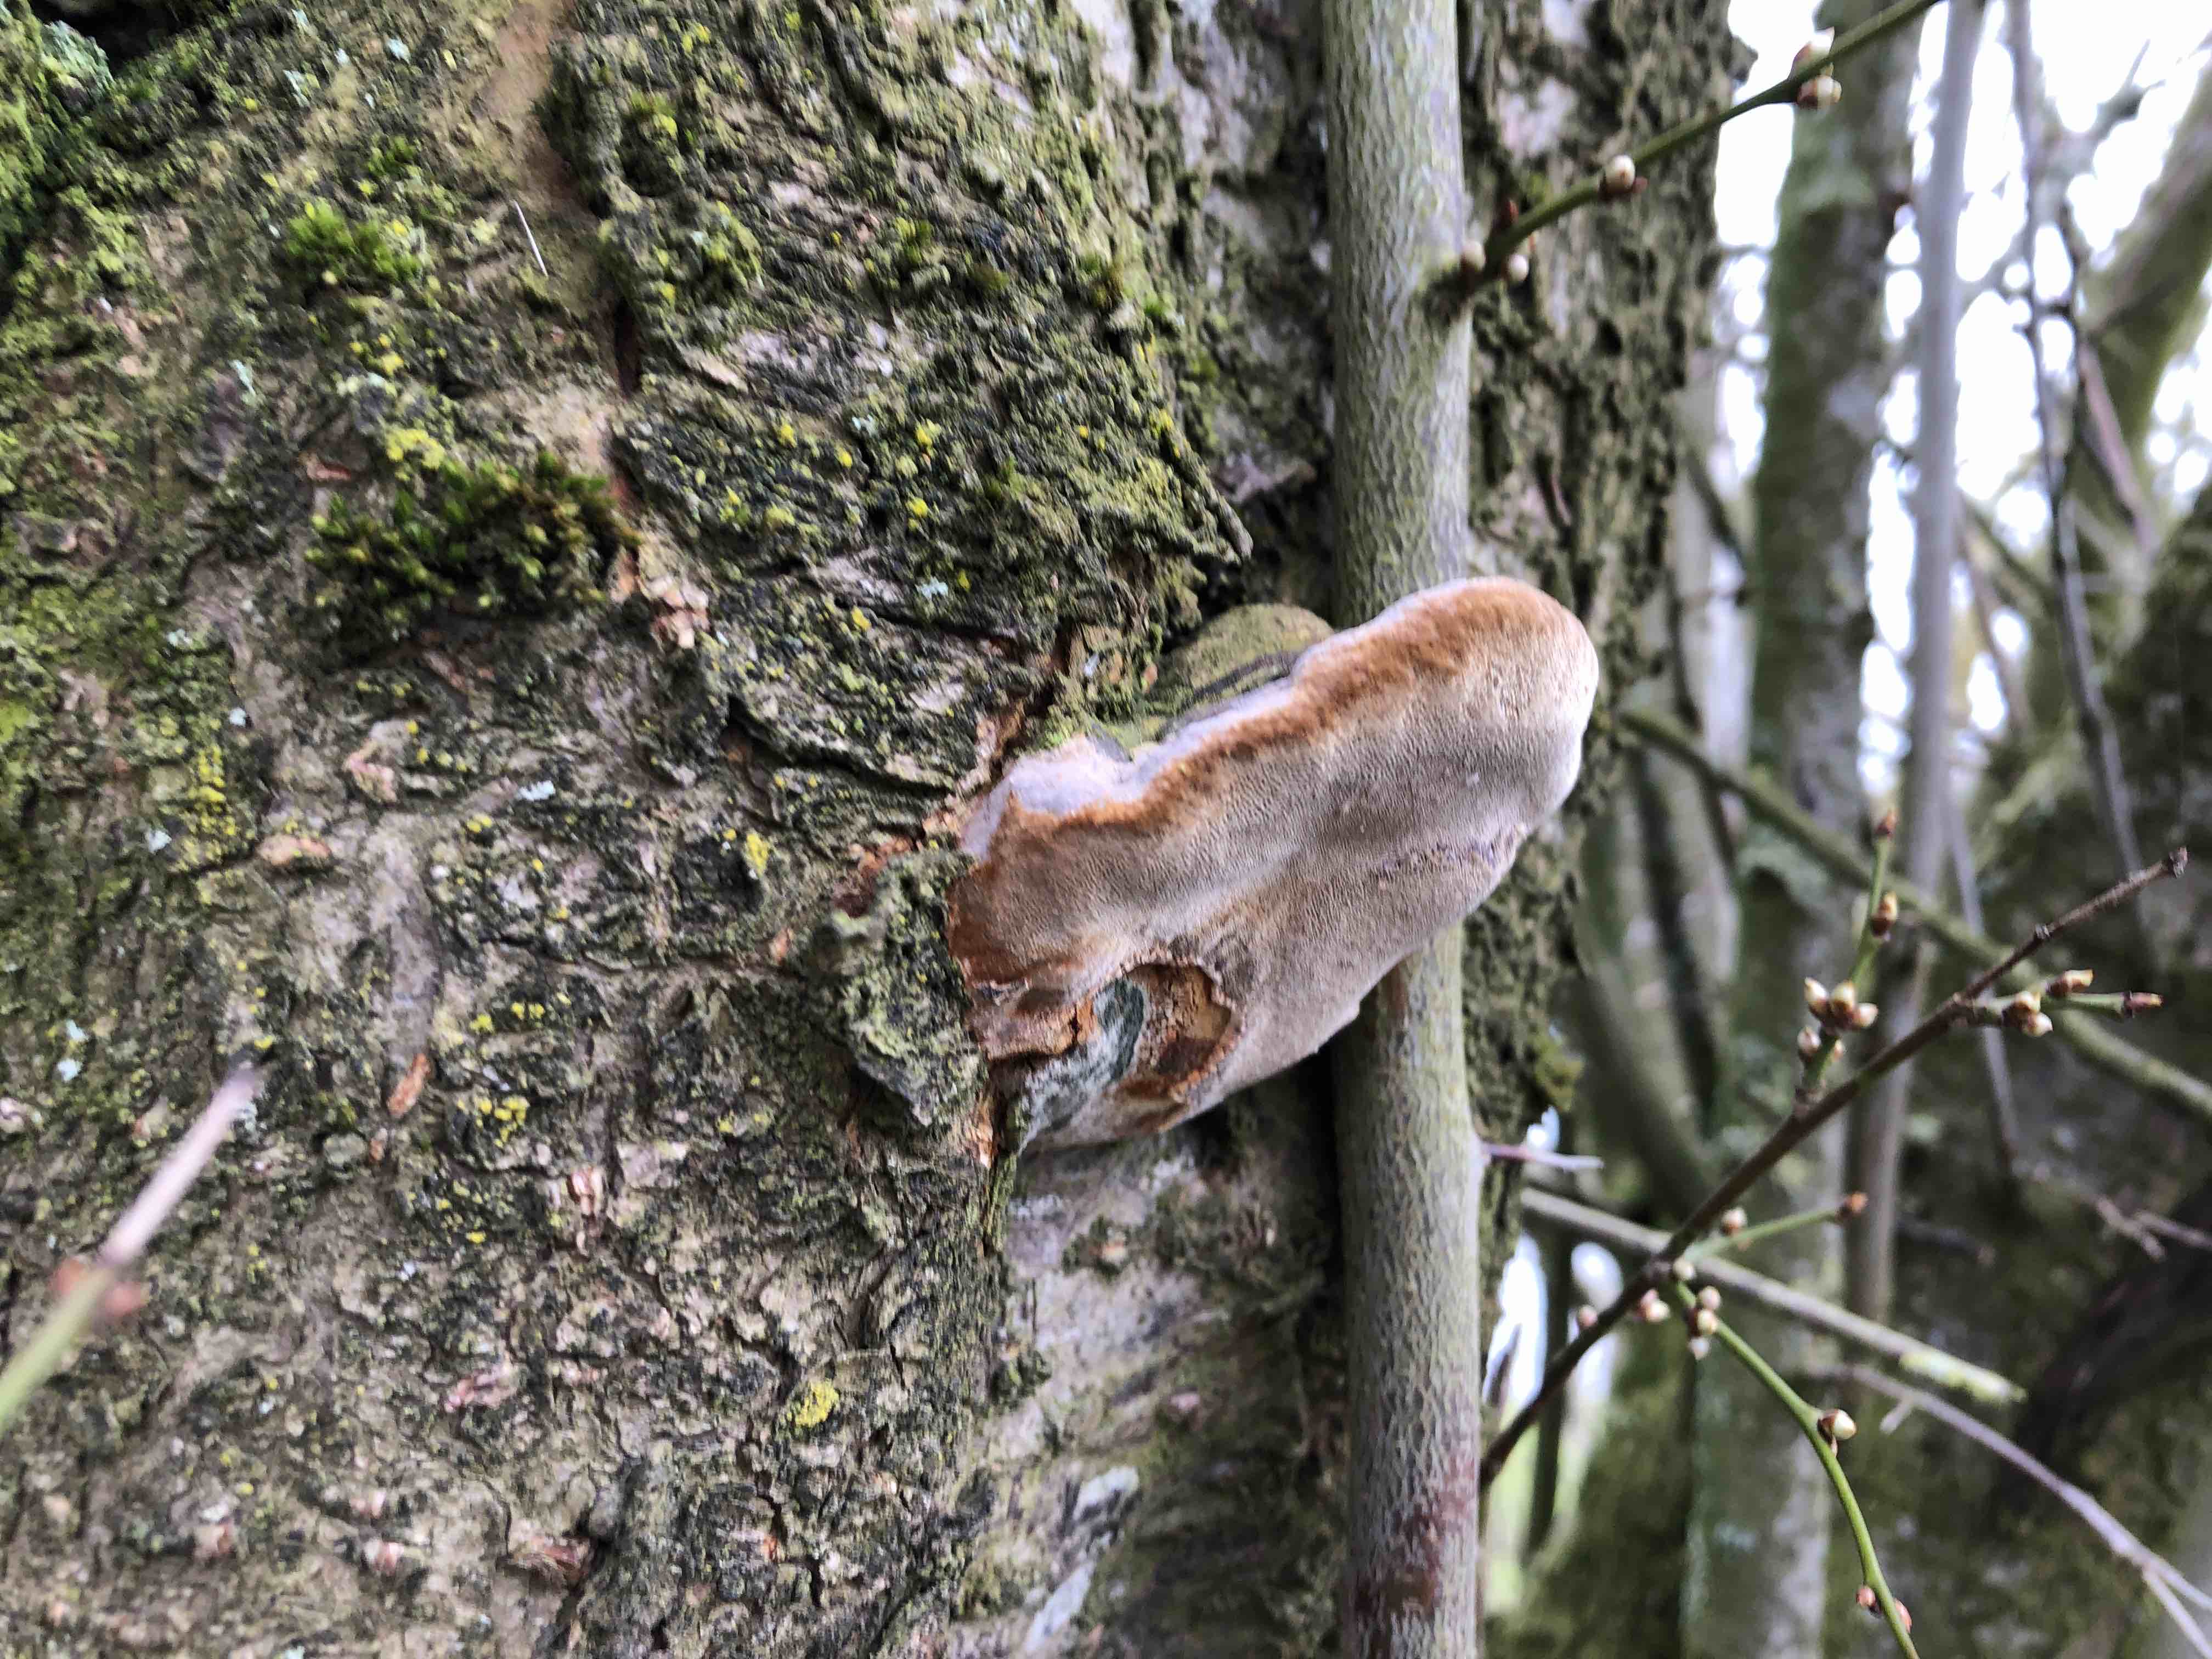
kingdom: Fungi
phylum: Basidiomycota
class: Agaricomycetes
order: Hymenochaetales
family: Hymenochaetaceae
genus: Phellinus
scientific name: Phellinus pomaceus
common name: blomme-ildporesvamp
